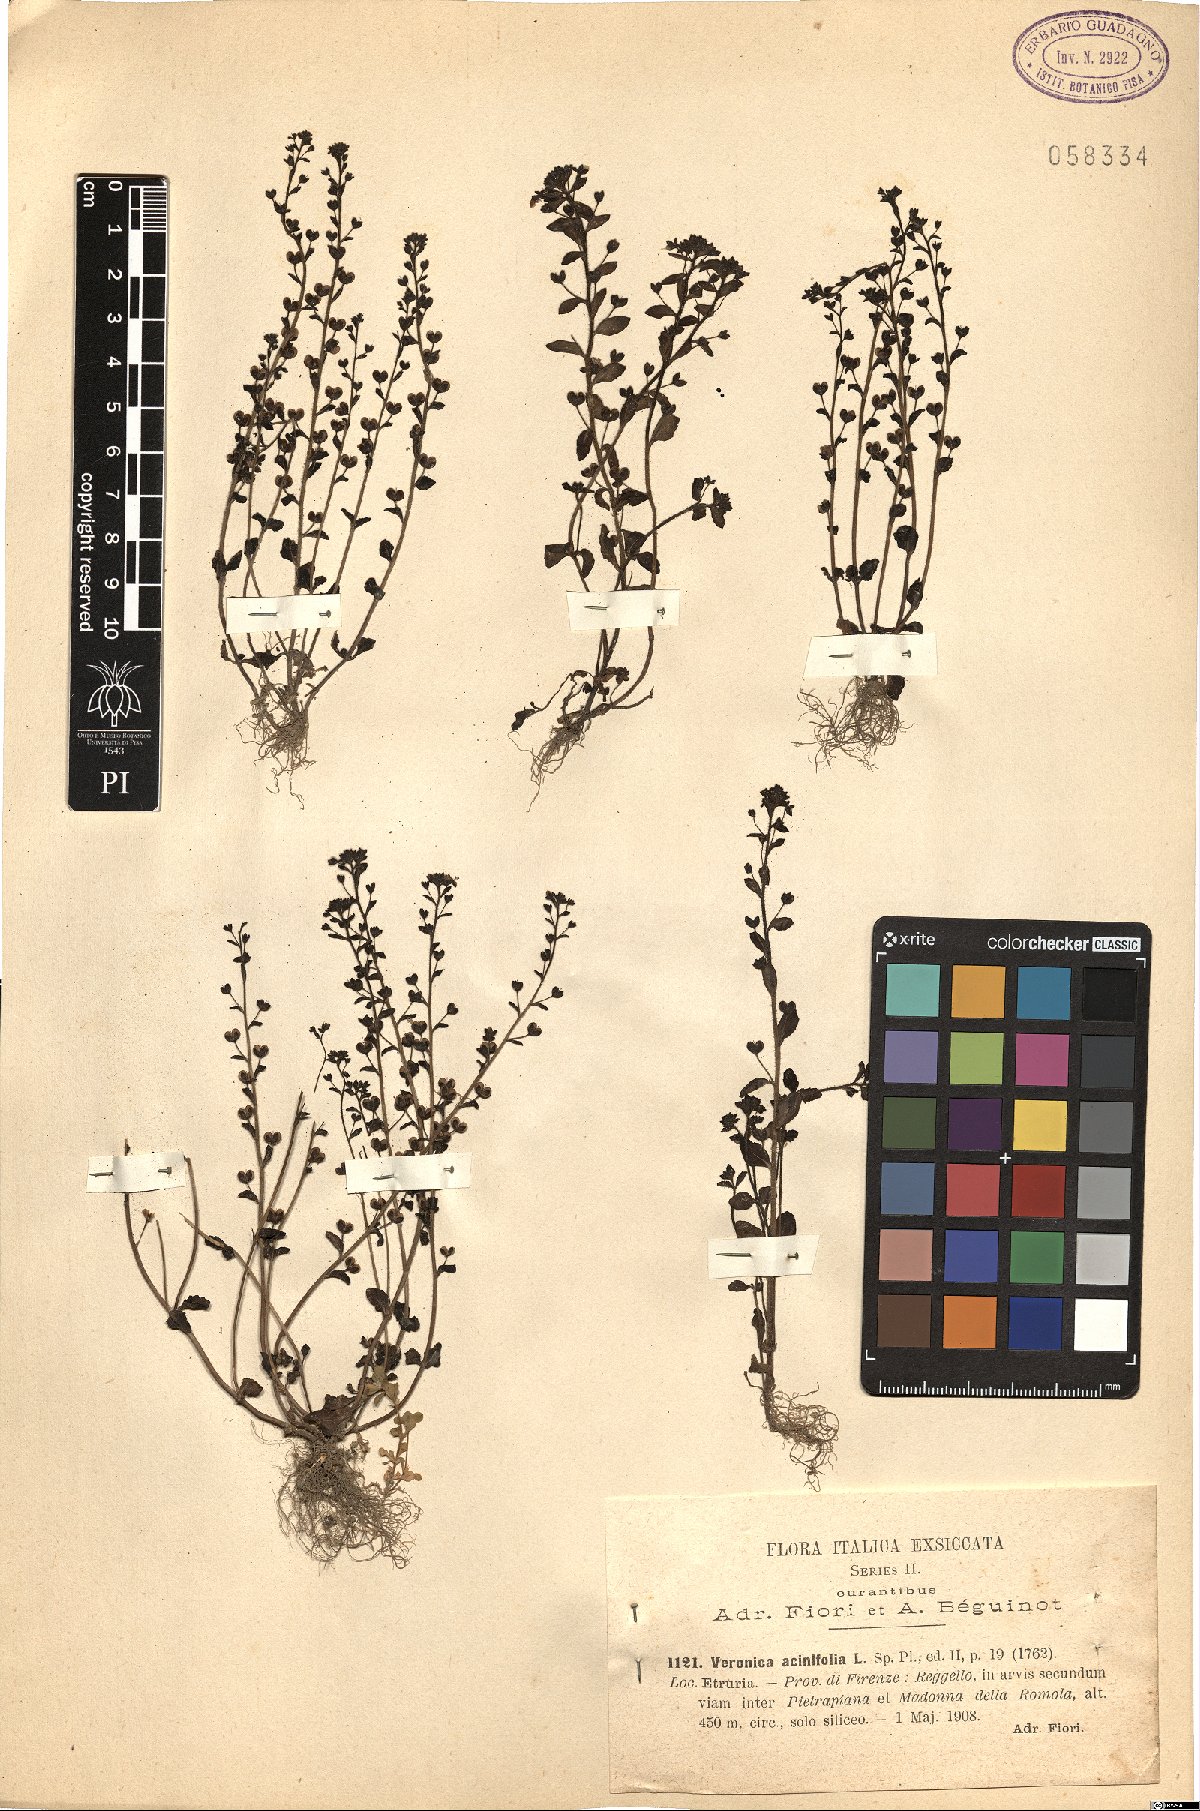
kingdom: Plantae
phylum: Tracheophyta
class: Magnoliopsida
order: Lamiales
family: Plantaginaceae
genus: Veronica
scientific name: Veronica acinifolia
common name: French speedwell
